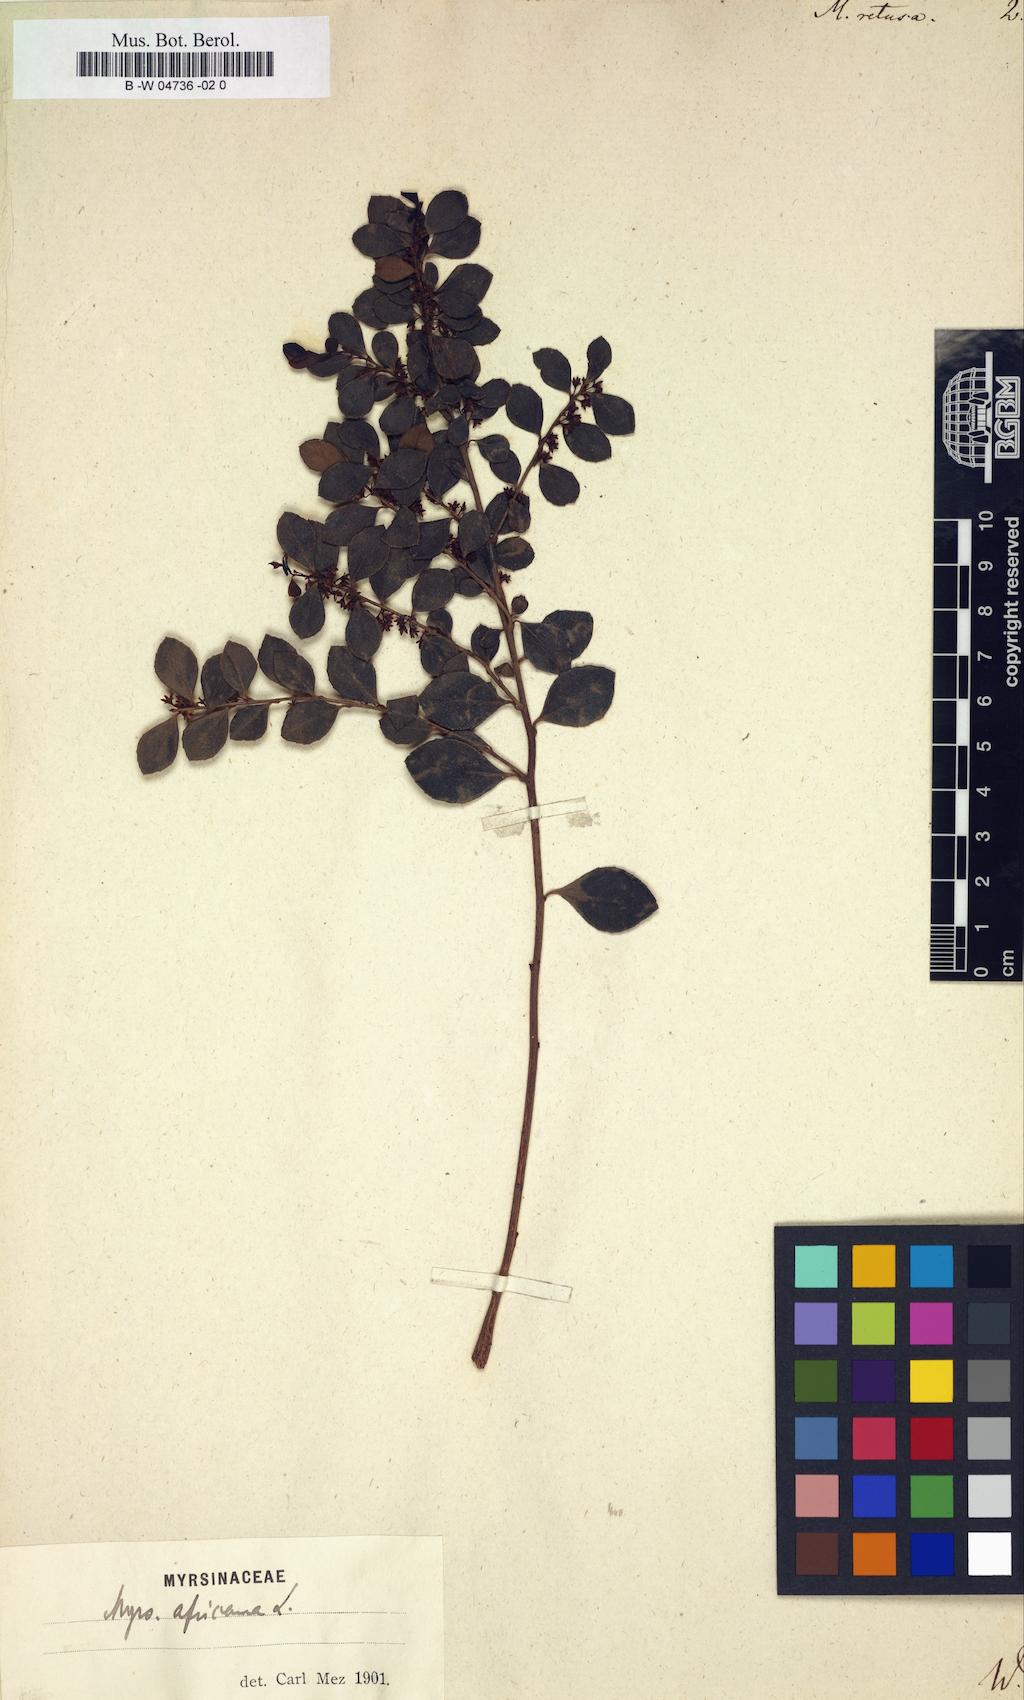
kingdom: Plantae
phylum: Tracheophyta
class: Magnoliopsida
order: Ericales
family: Primulaceae
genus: Myrsine
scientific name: Myrsine retusa
